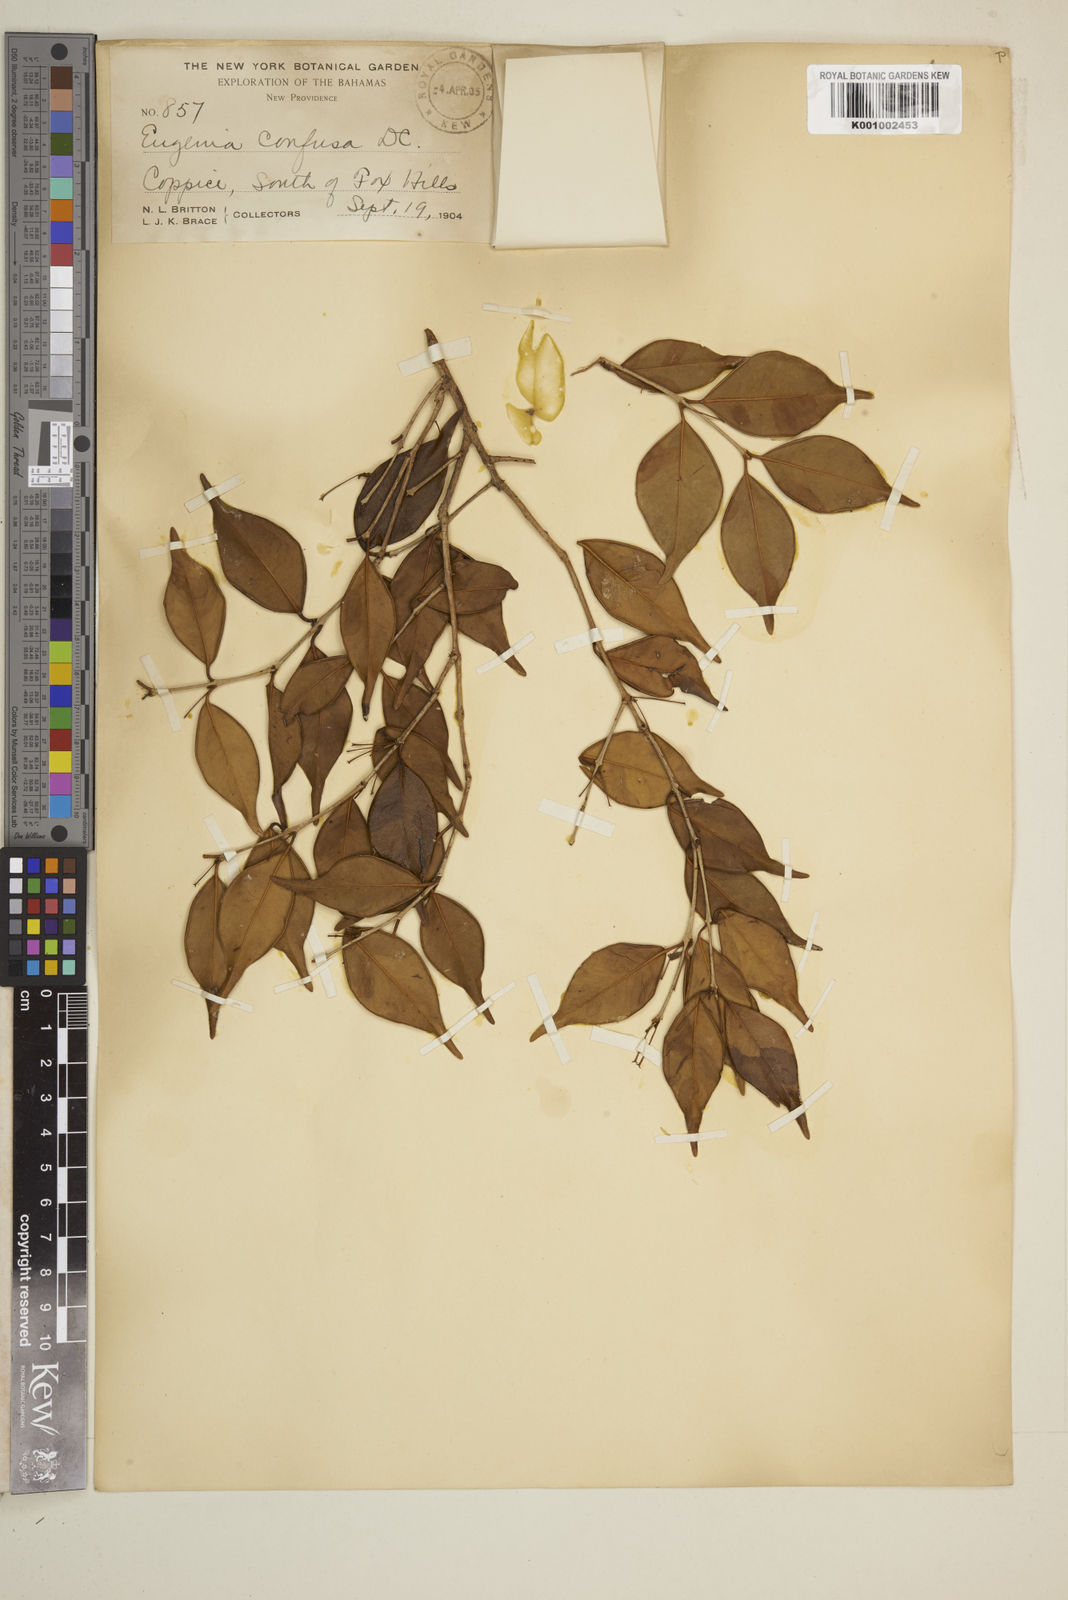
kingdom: Plantae
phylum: Tracheophyta
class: Magnoliopsida
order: Myrtales
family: Myrtaceae
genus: Eugenia
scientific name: Eugenia confusa
